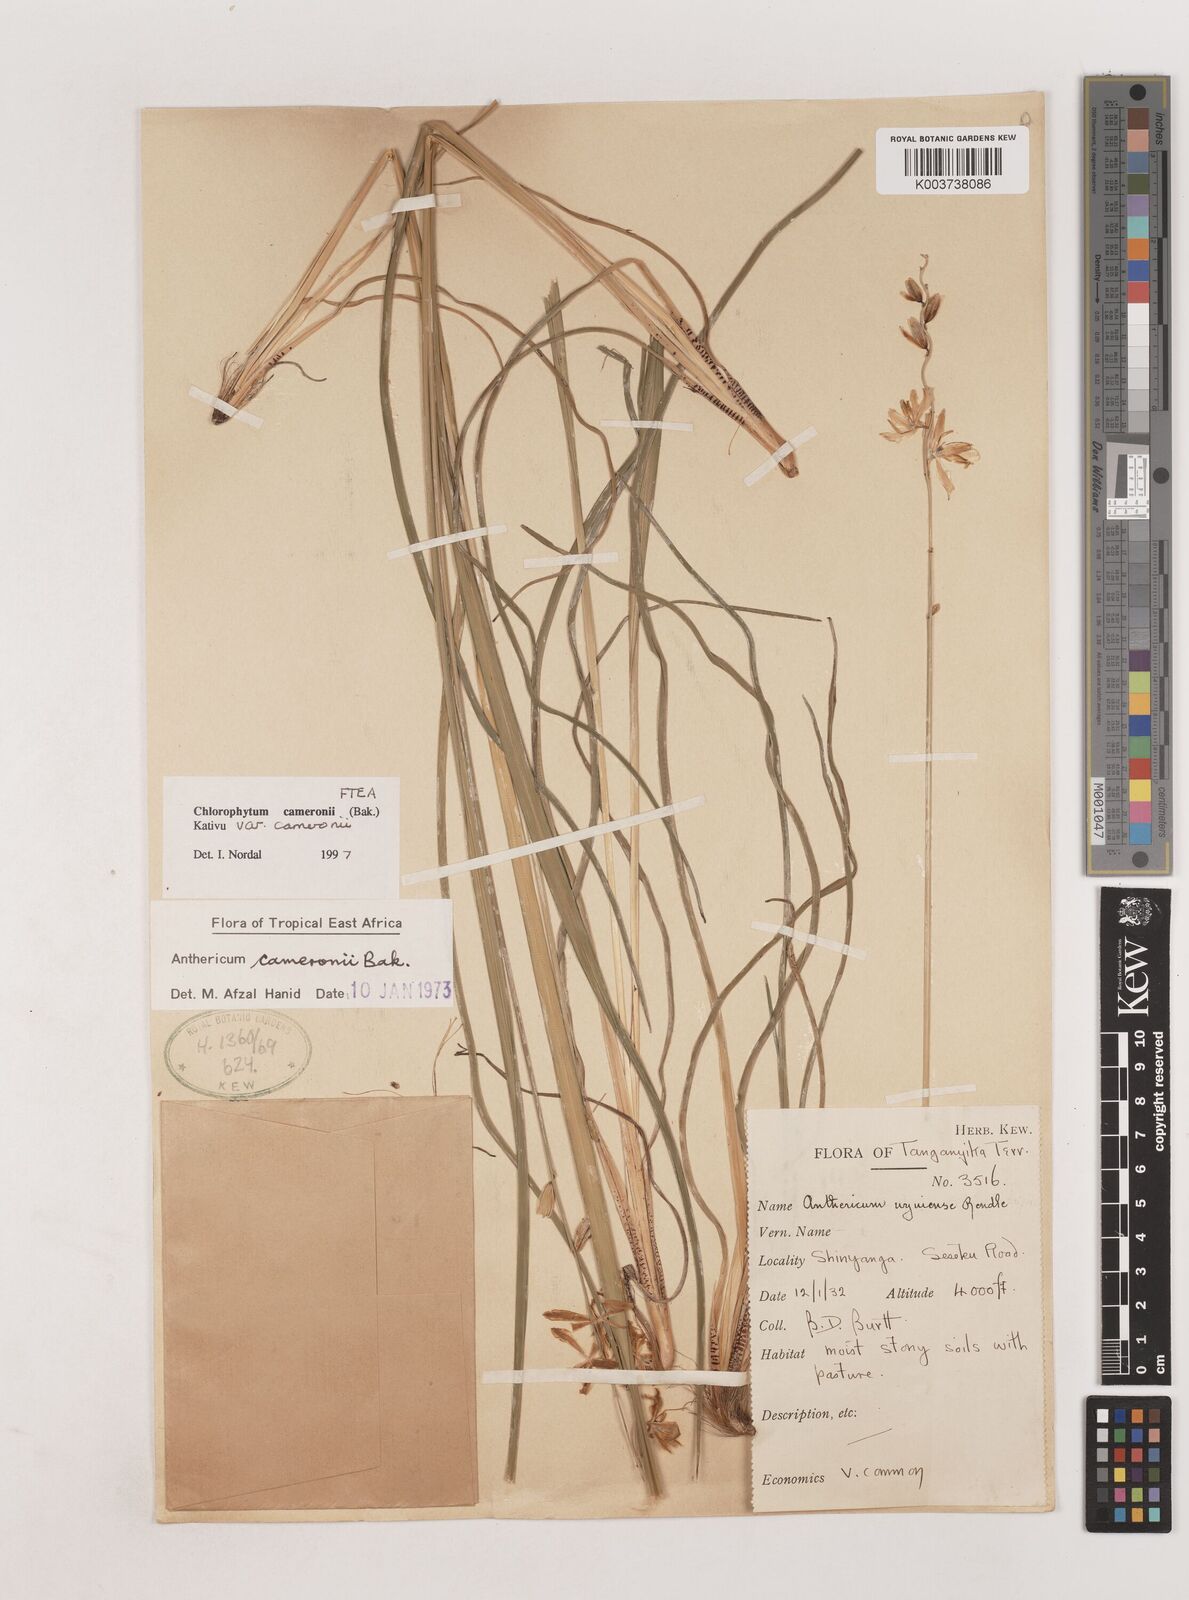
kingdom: Plantae
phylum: Tracheophyta
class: Liliopsida
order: Asparagales
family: Asparagaceae
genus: Chlorophytum
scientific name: Chlorophytum cameronii
